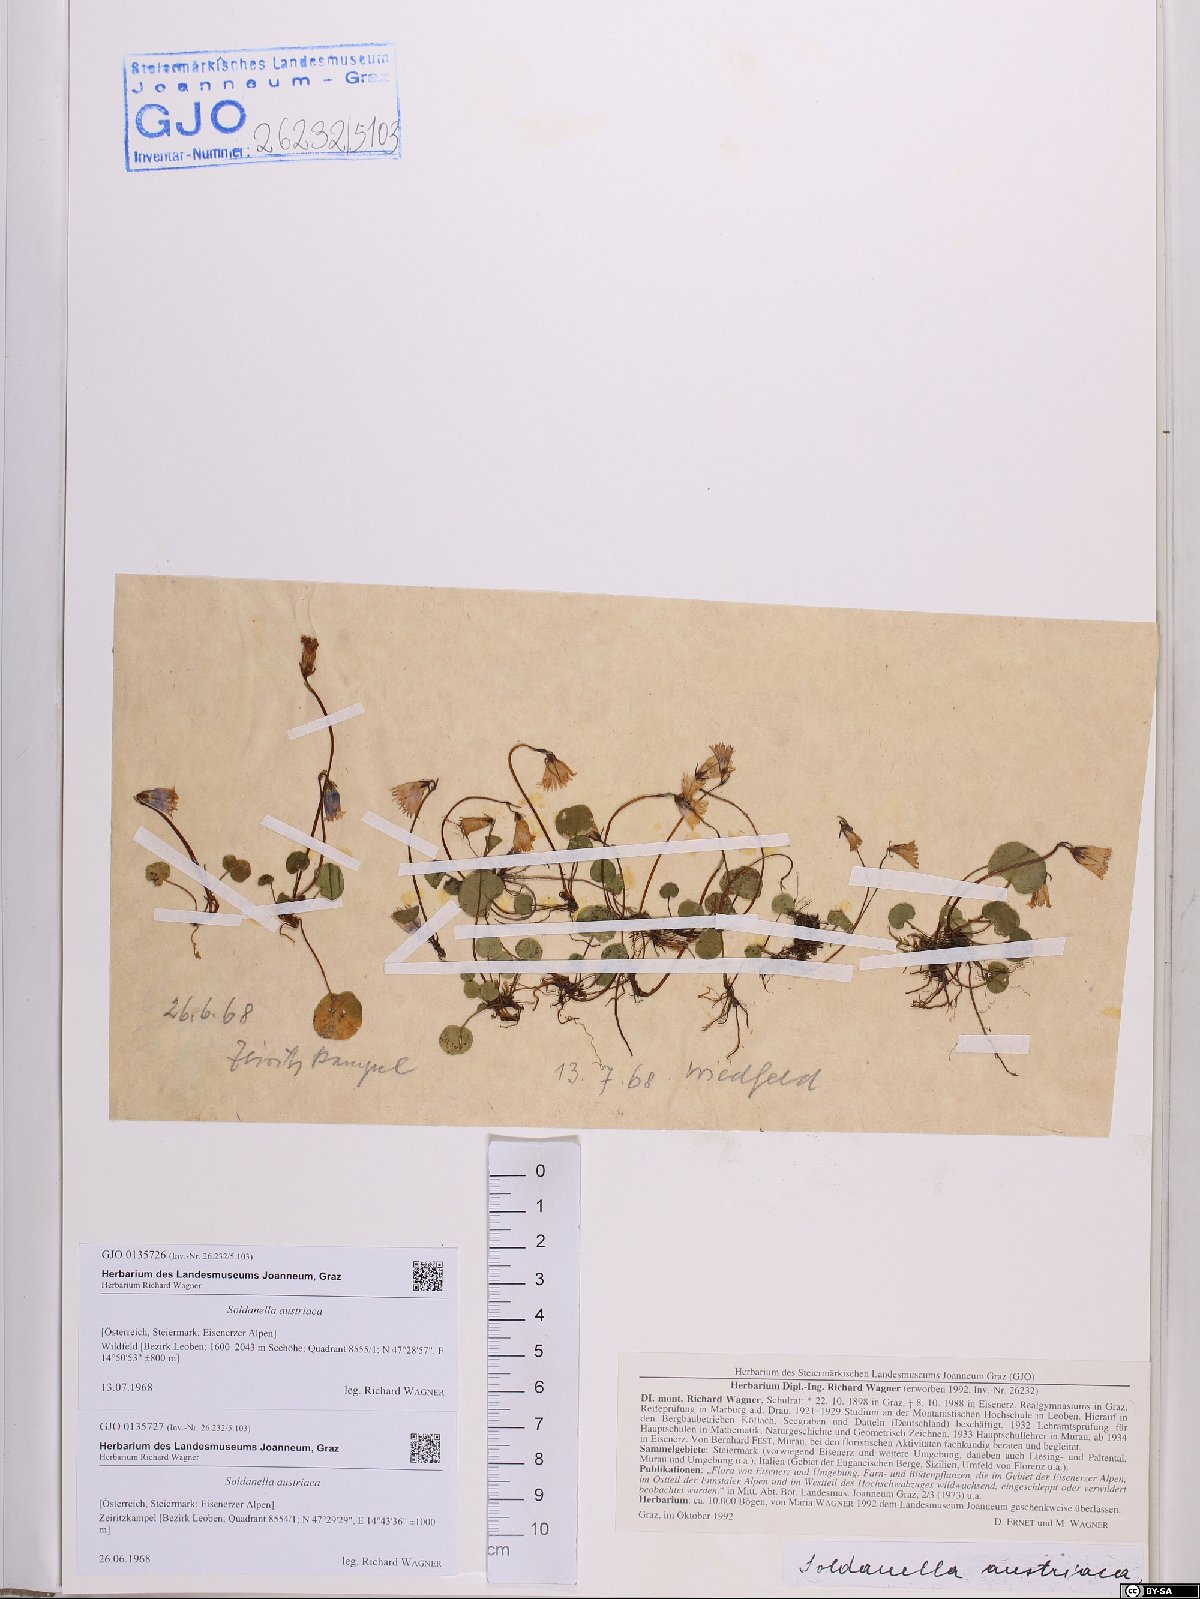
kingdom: Plantae
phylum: Tracheophyta
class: Magnoliopsida
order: Ericales
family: Primulaceae
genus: Soldanella
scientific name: Soldanella austriaca
